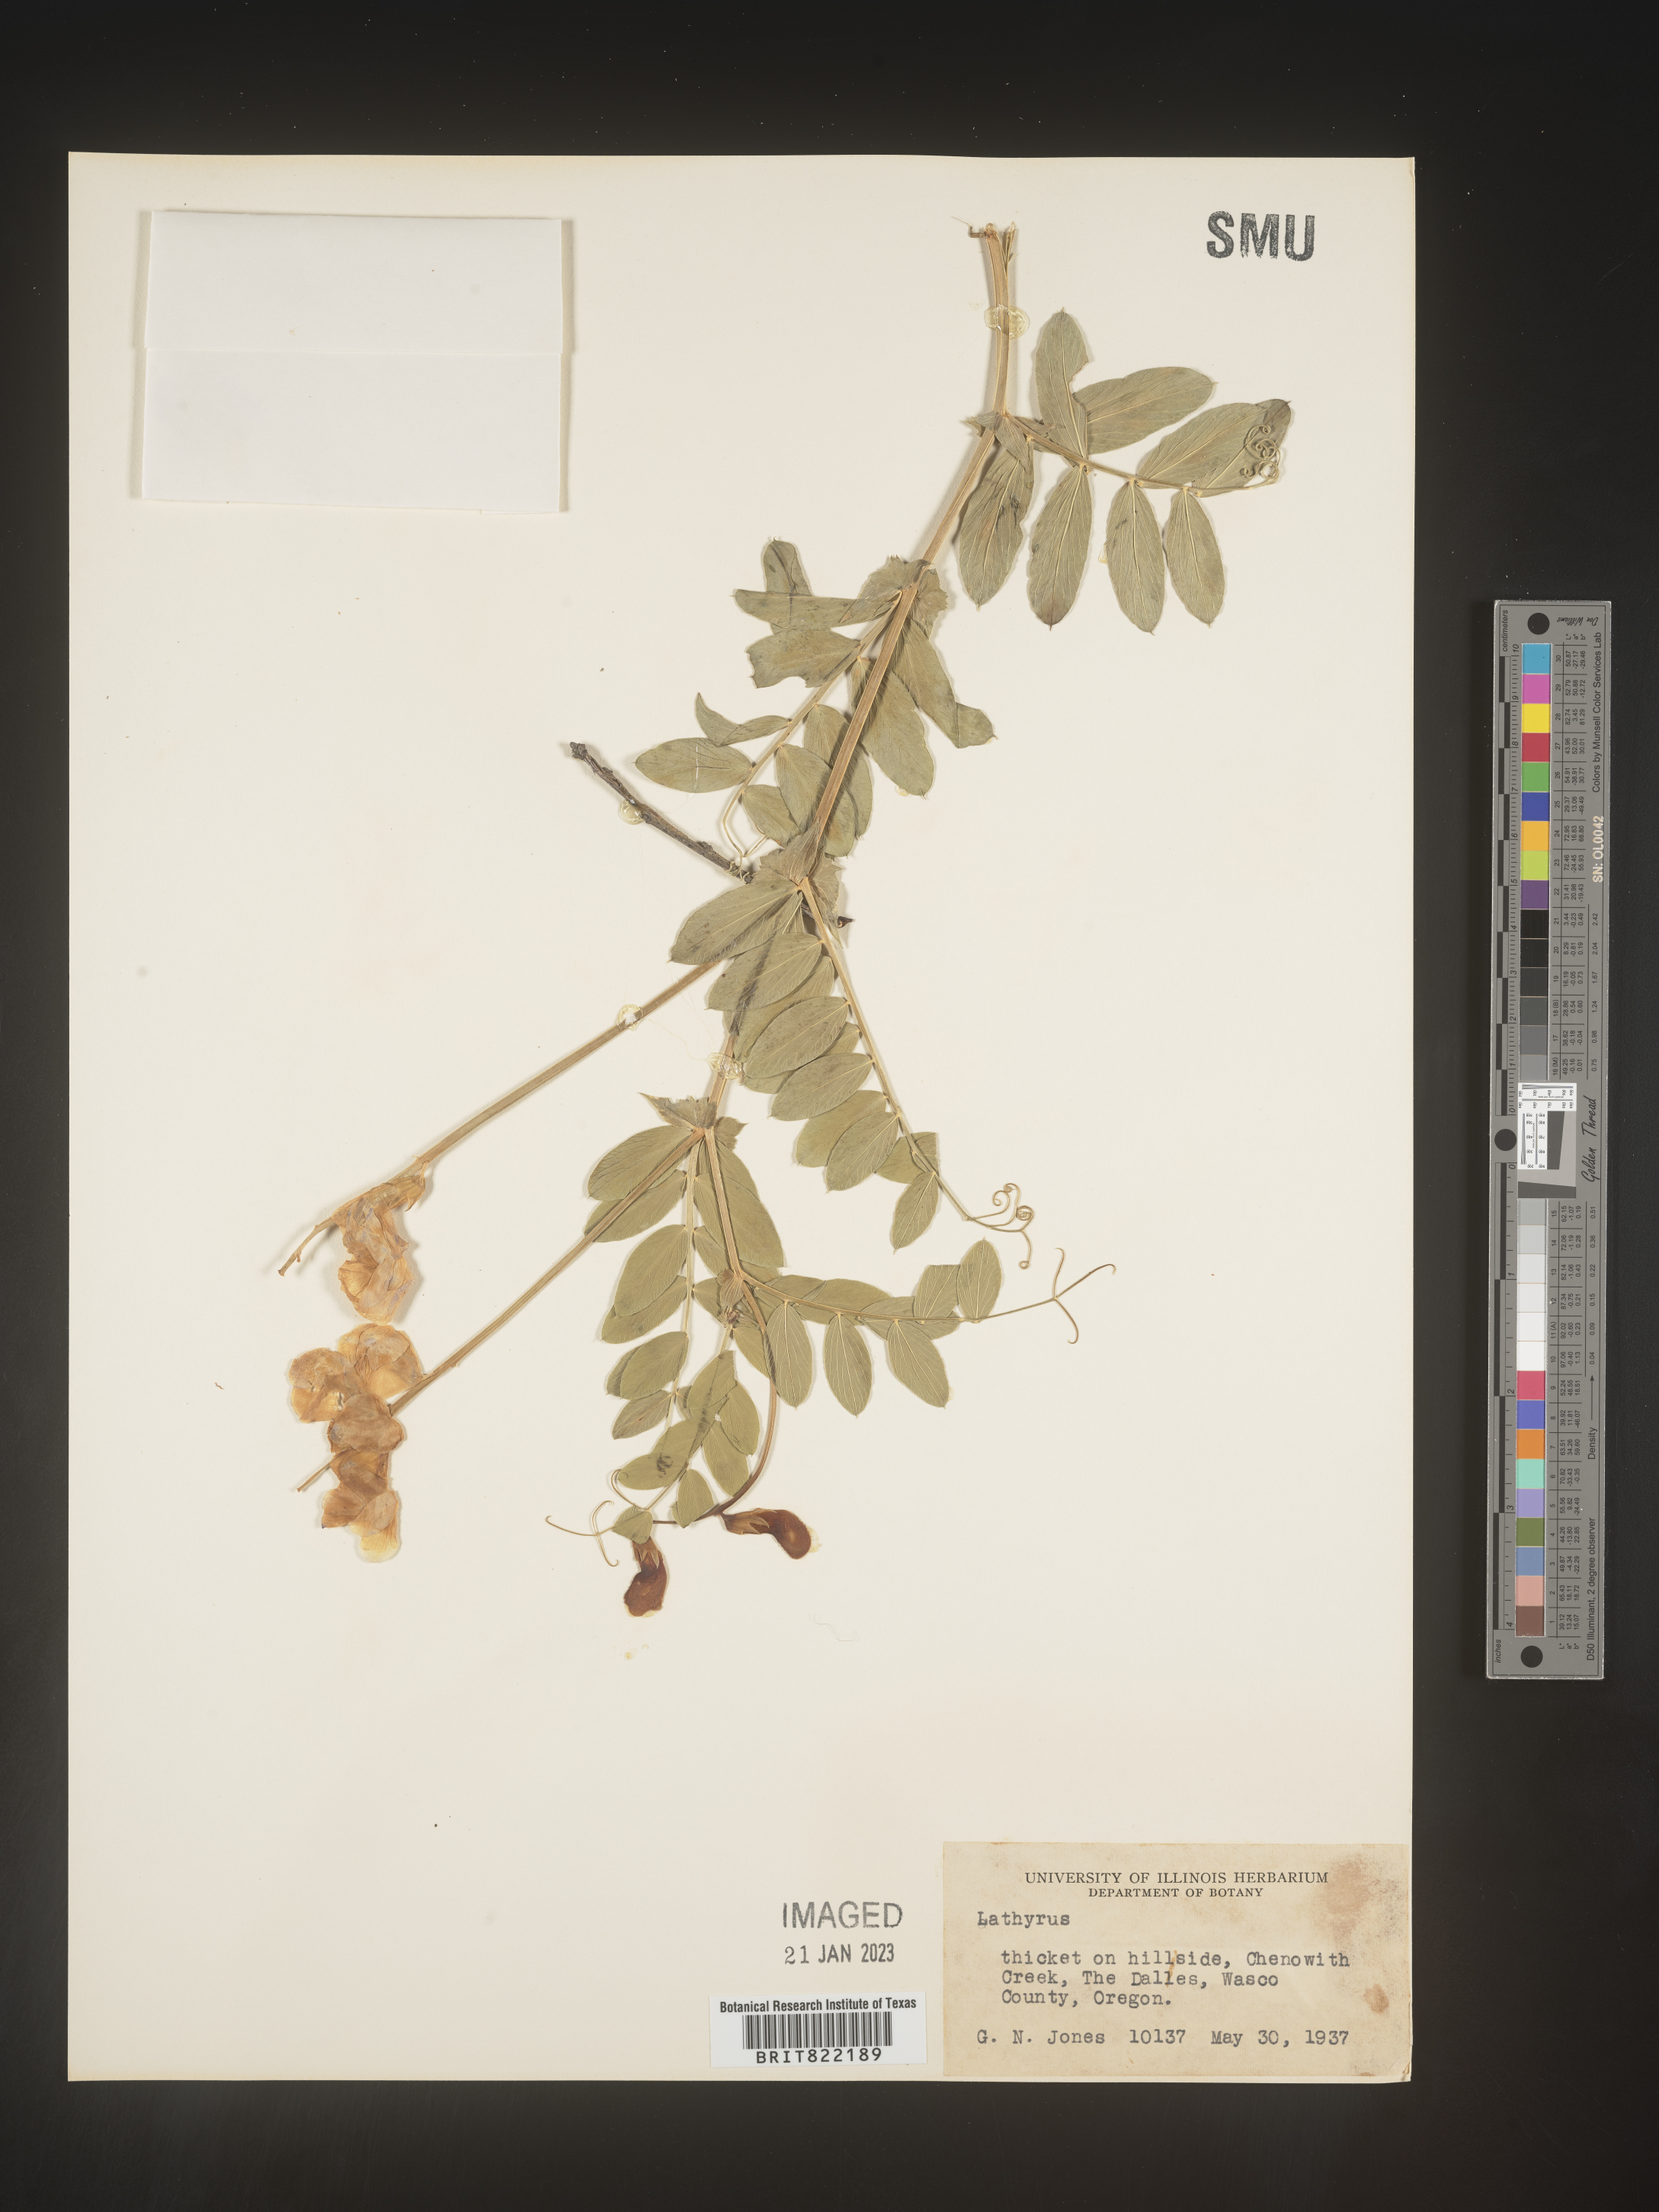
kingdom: Plantae
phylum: Tracheophyta
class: Magnoliopsida
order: Fabales
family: Fabaceae
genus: Lathyrus
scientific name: Lathyrus
